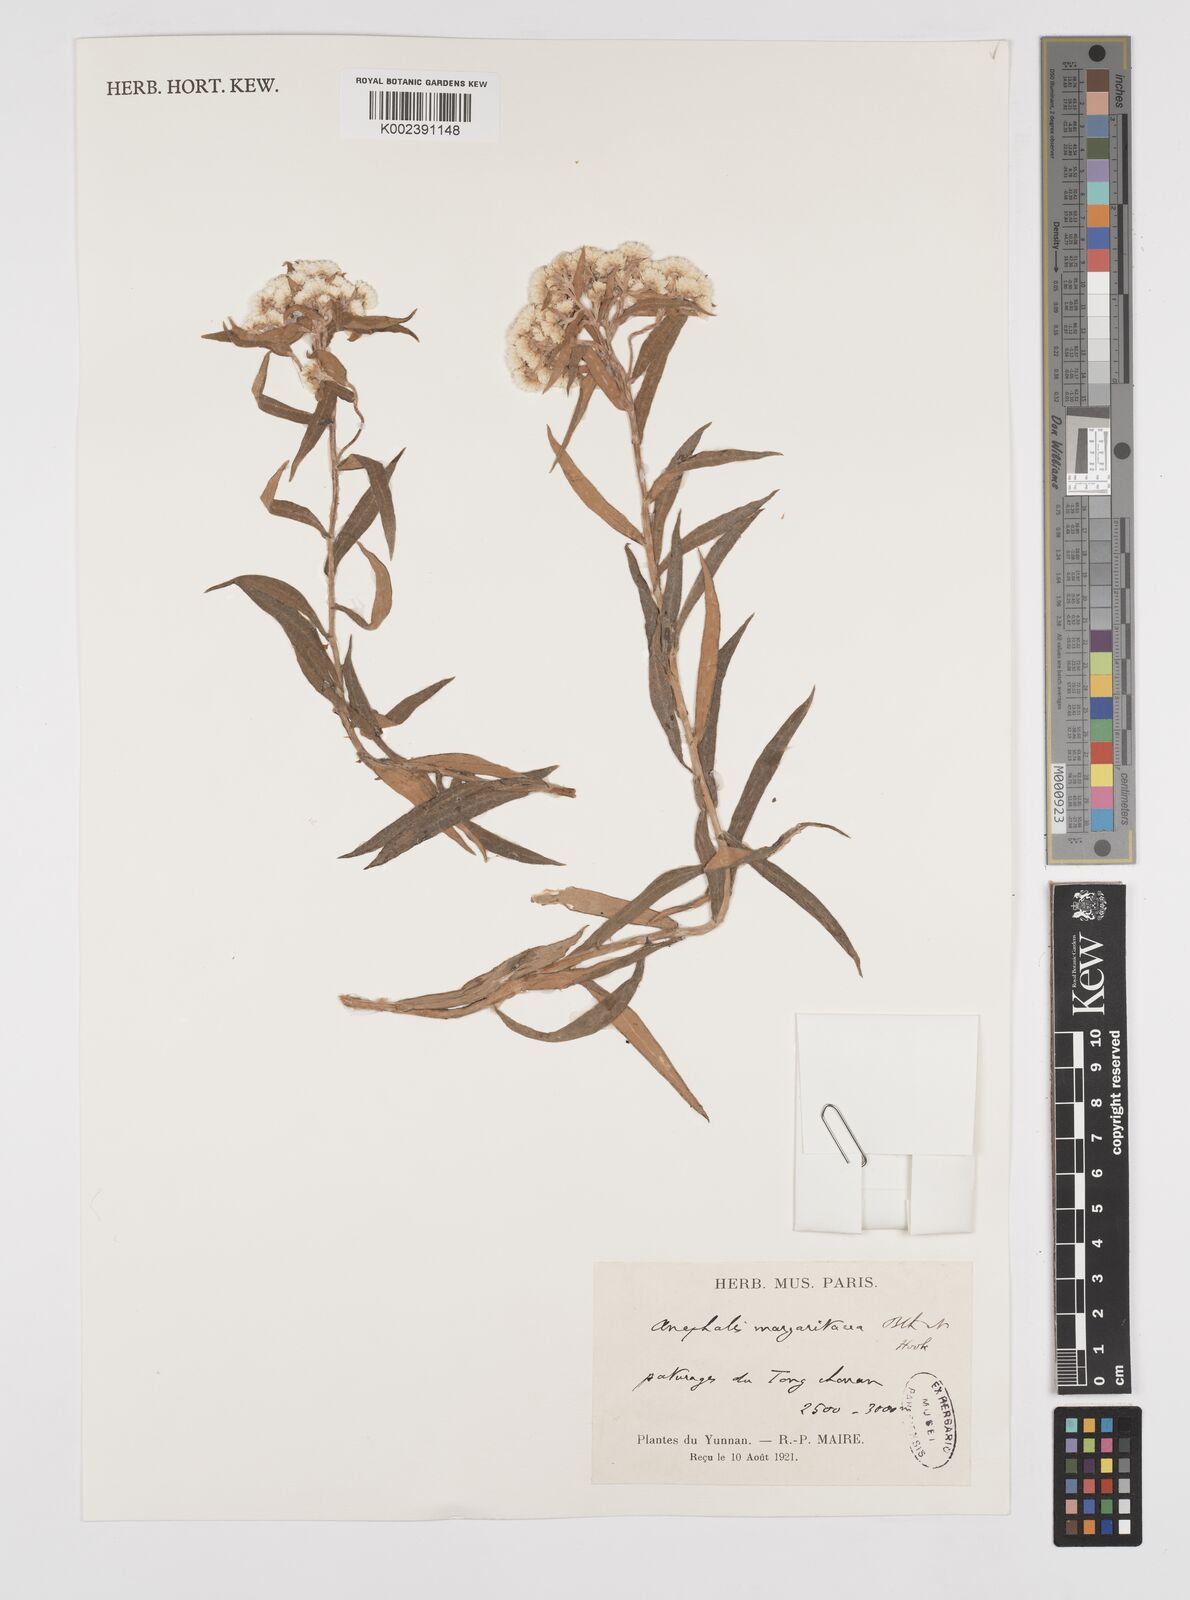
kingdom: Plantae
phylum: Tracheophyta
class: Magnoliopsida
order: Asterales
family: Asteraceae
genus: Anaphalis
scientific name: Anaphalis margaritacea
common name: Pearly everlasting
